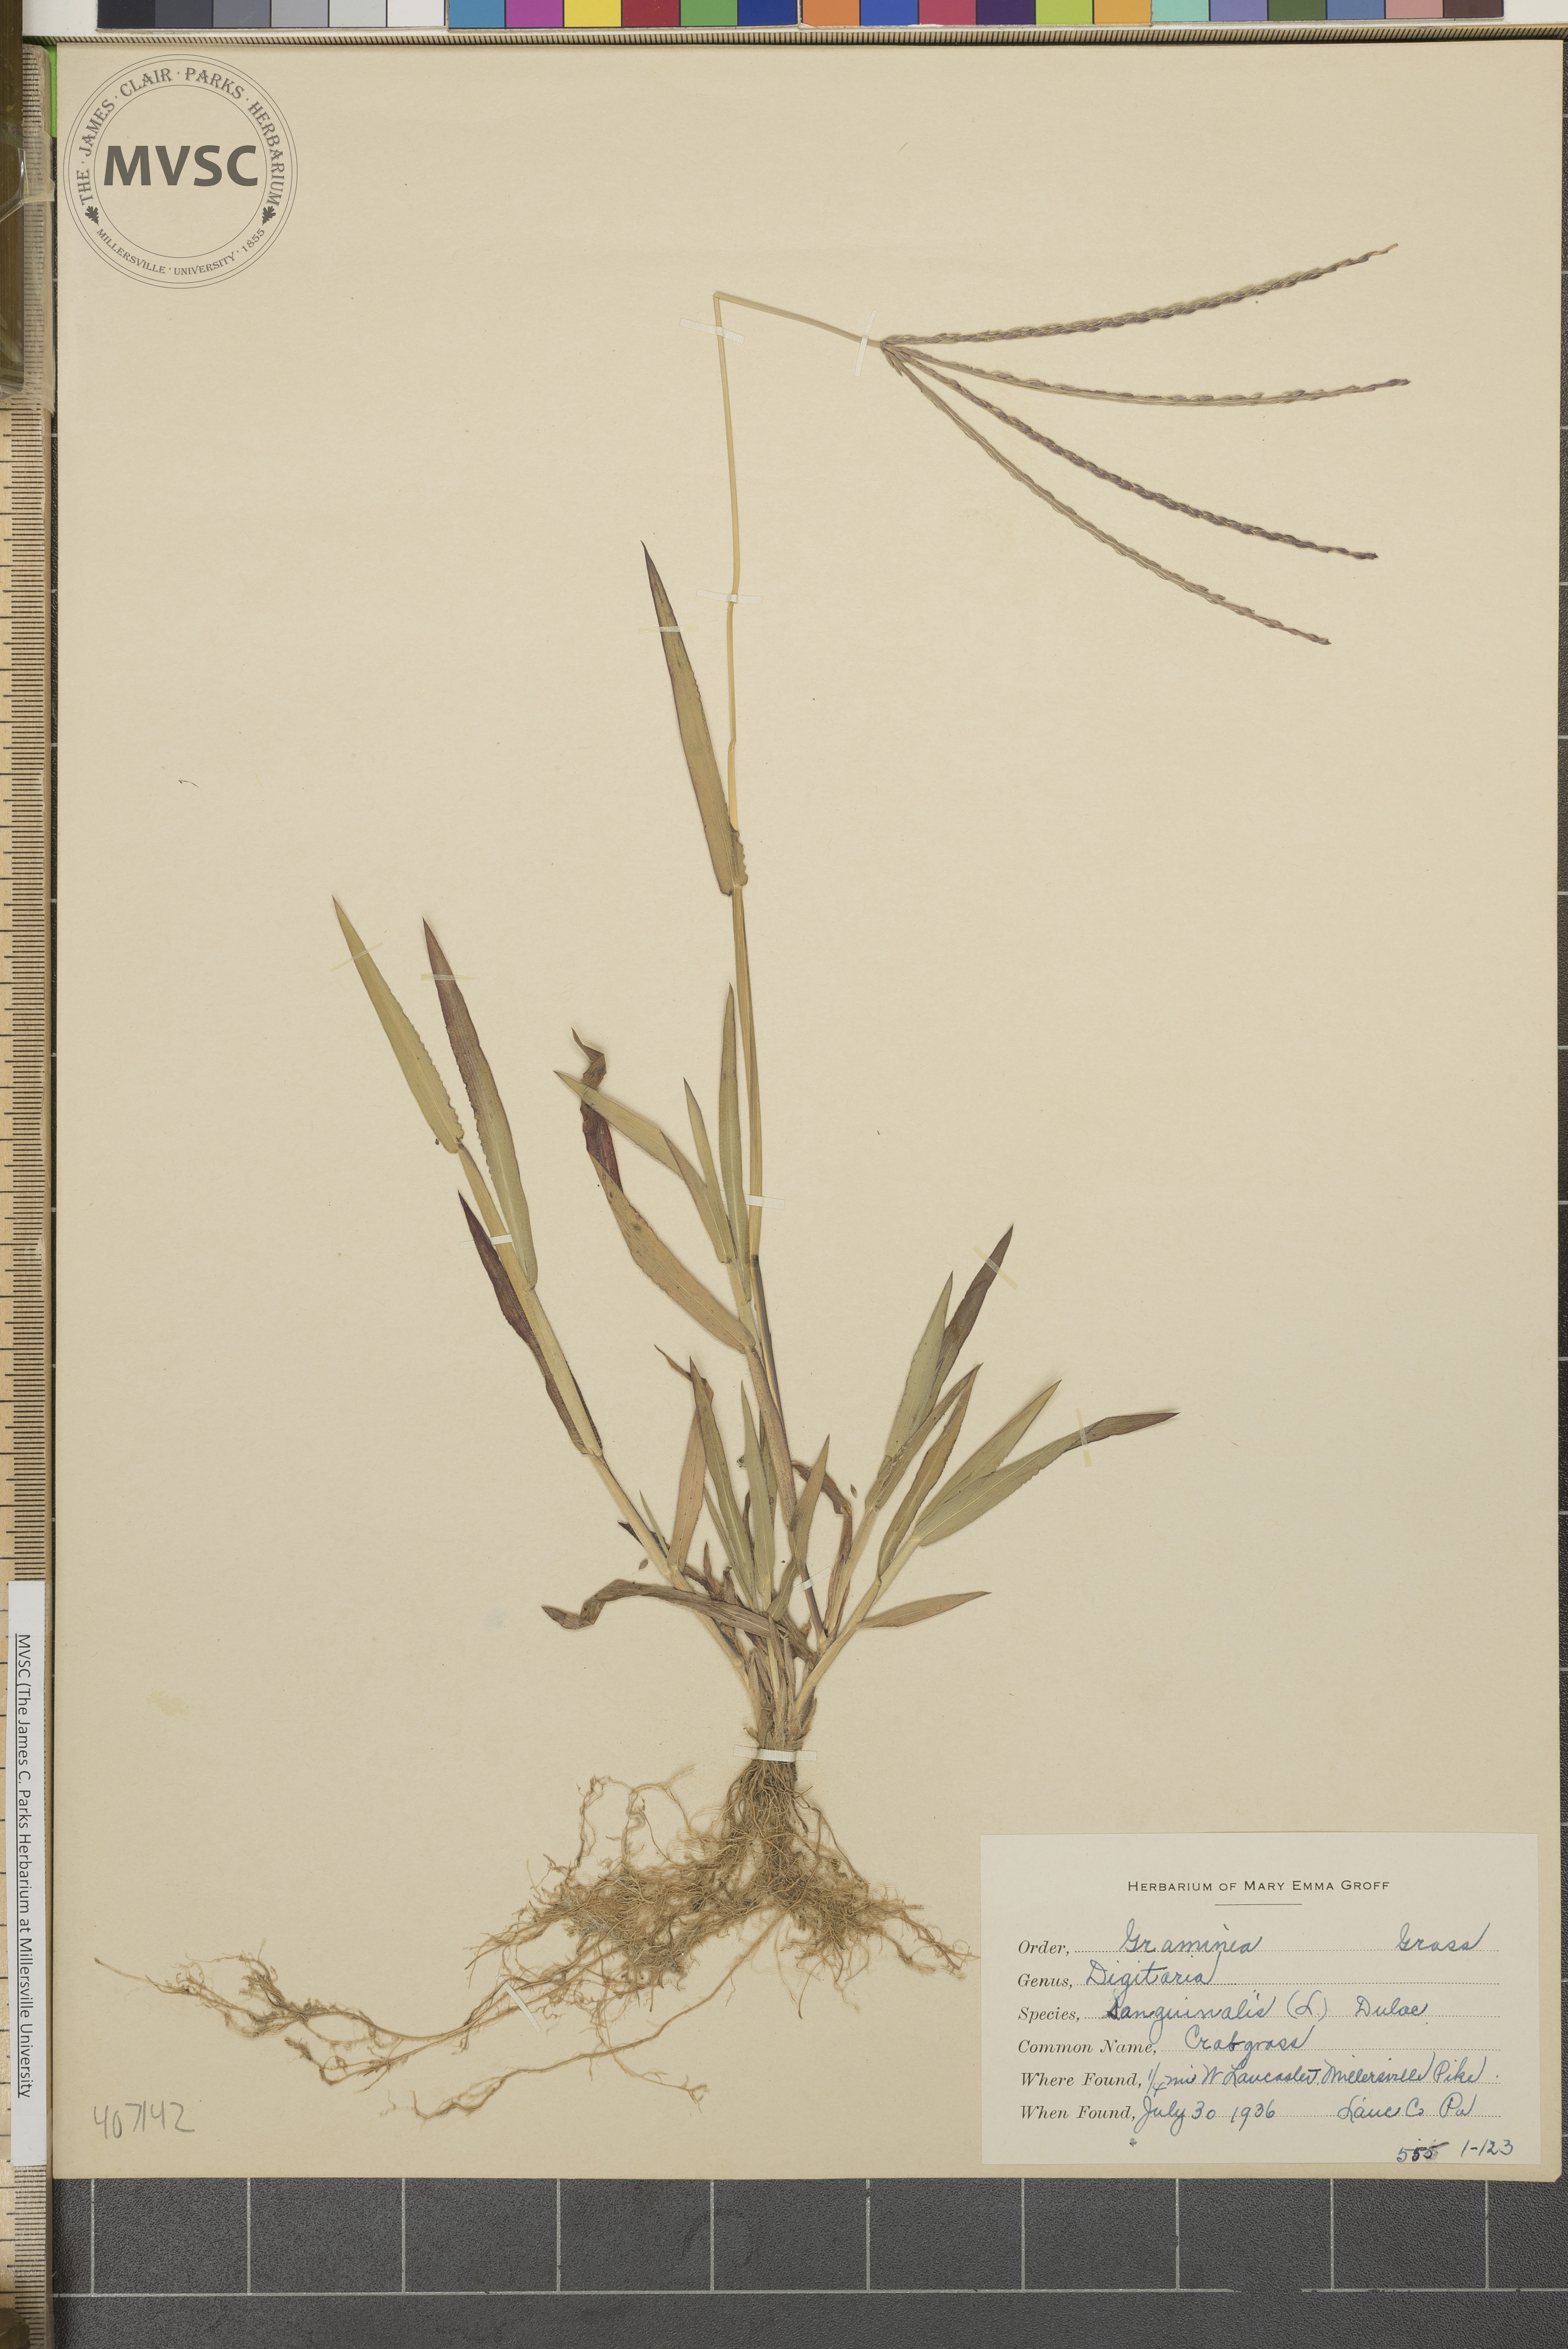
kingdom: Plantae
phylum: Tracheophyta
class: Liliopsida
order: Poales
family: Poaceae
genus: Digitaria
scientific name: Digitaria sanguinalis
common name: Hairy crabgrass
